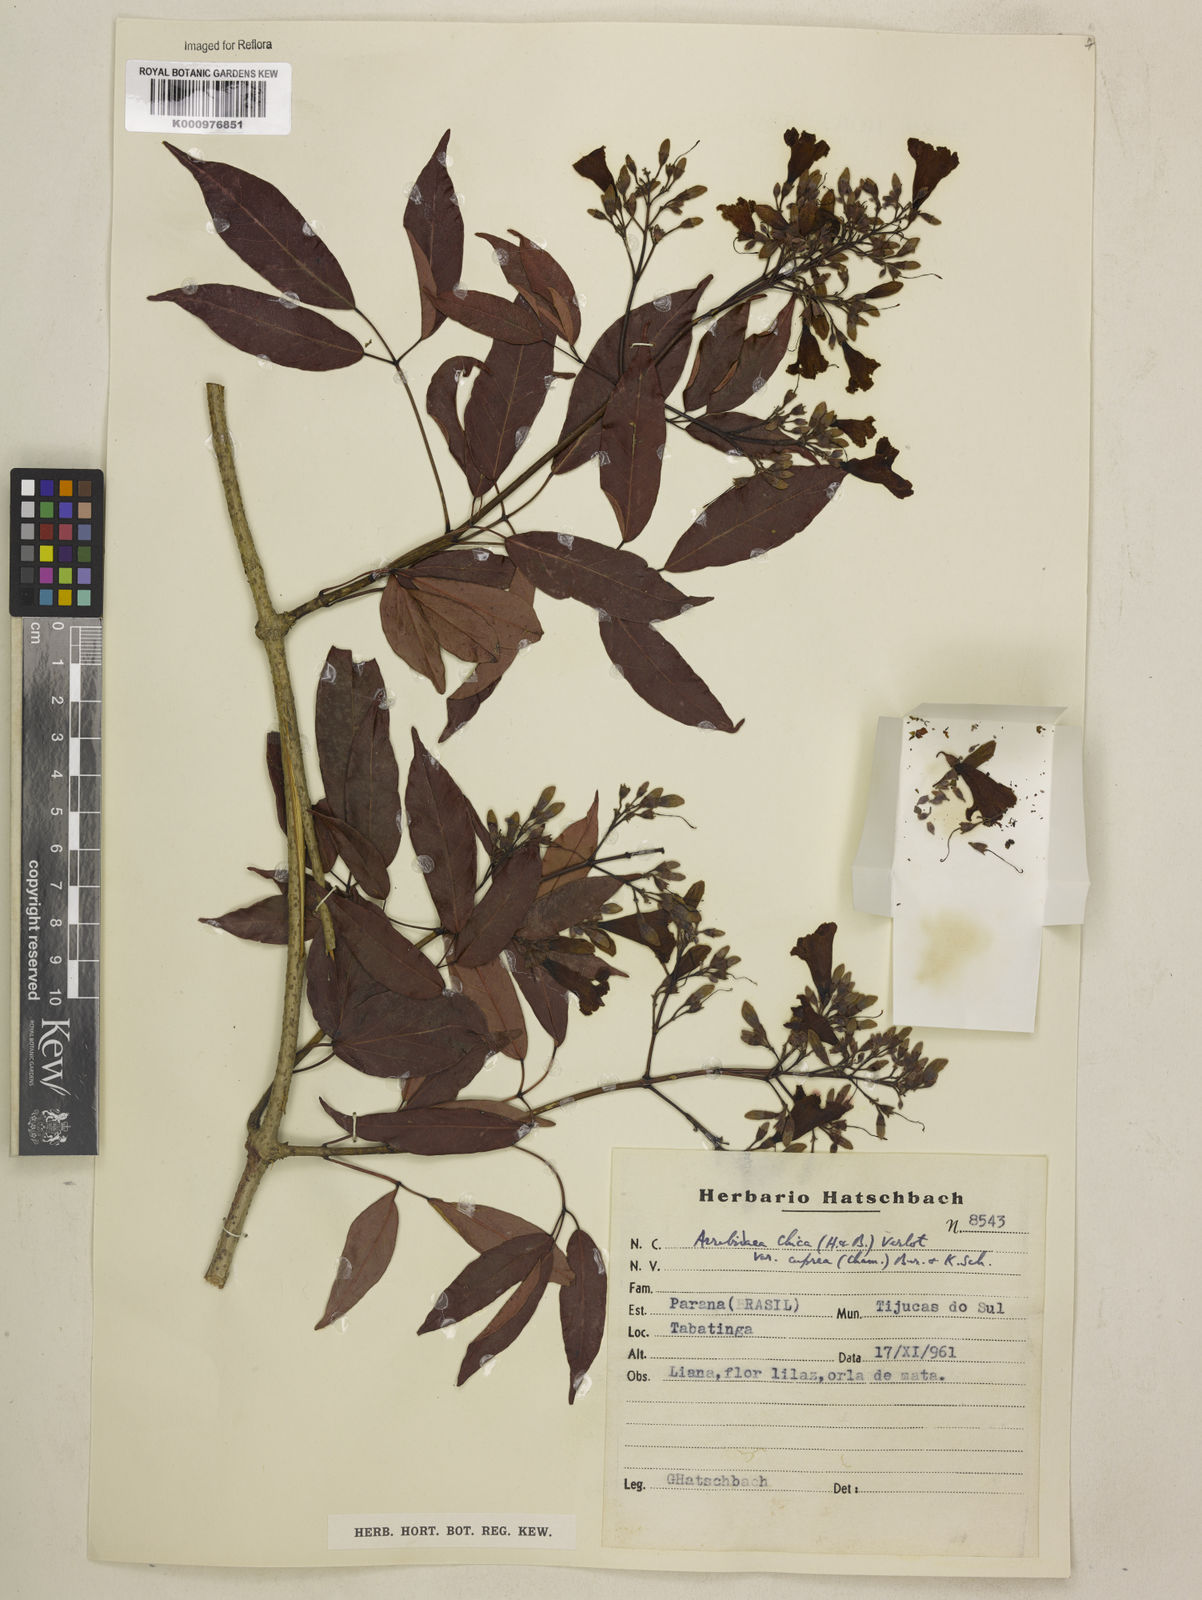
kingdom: Plantae
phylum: Tracheophyta
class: Magnoliopsida
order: Lamiales
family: Bignoniaceae
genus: Fridericia
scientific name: Fridericia chica
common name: Cricketvine
